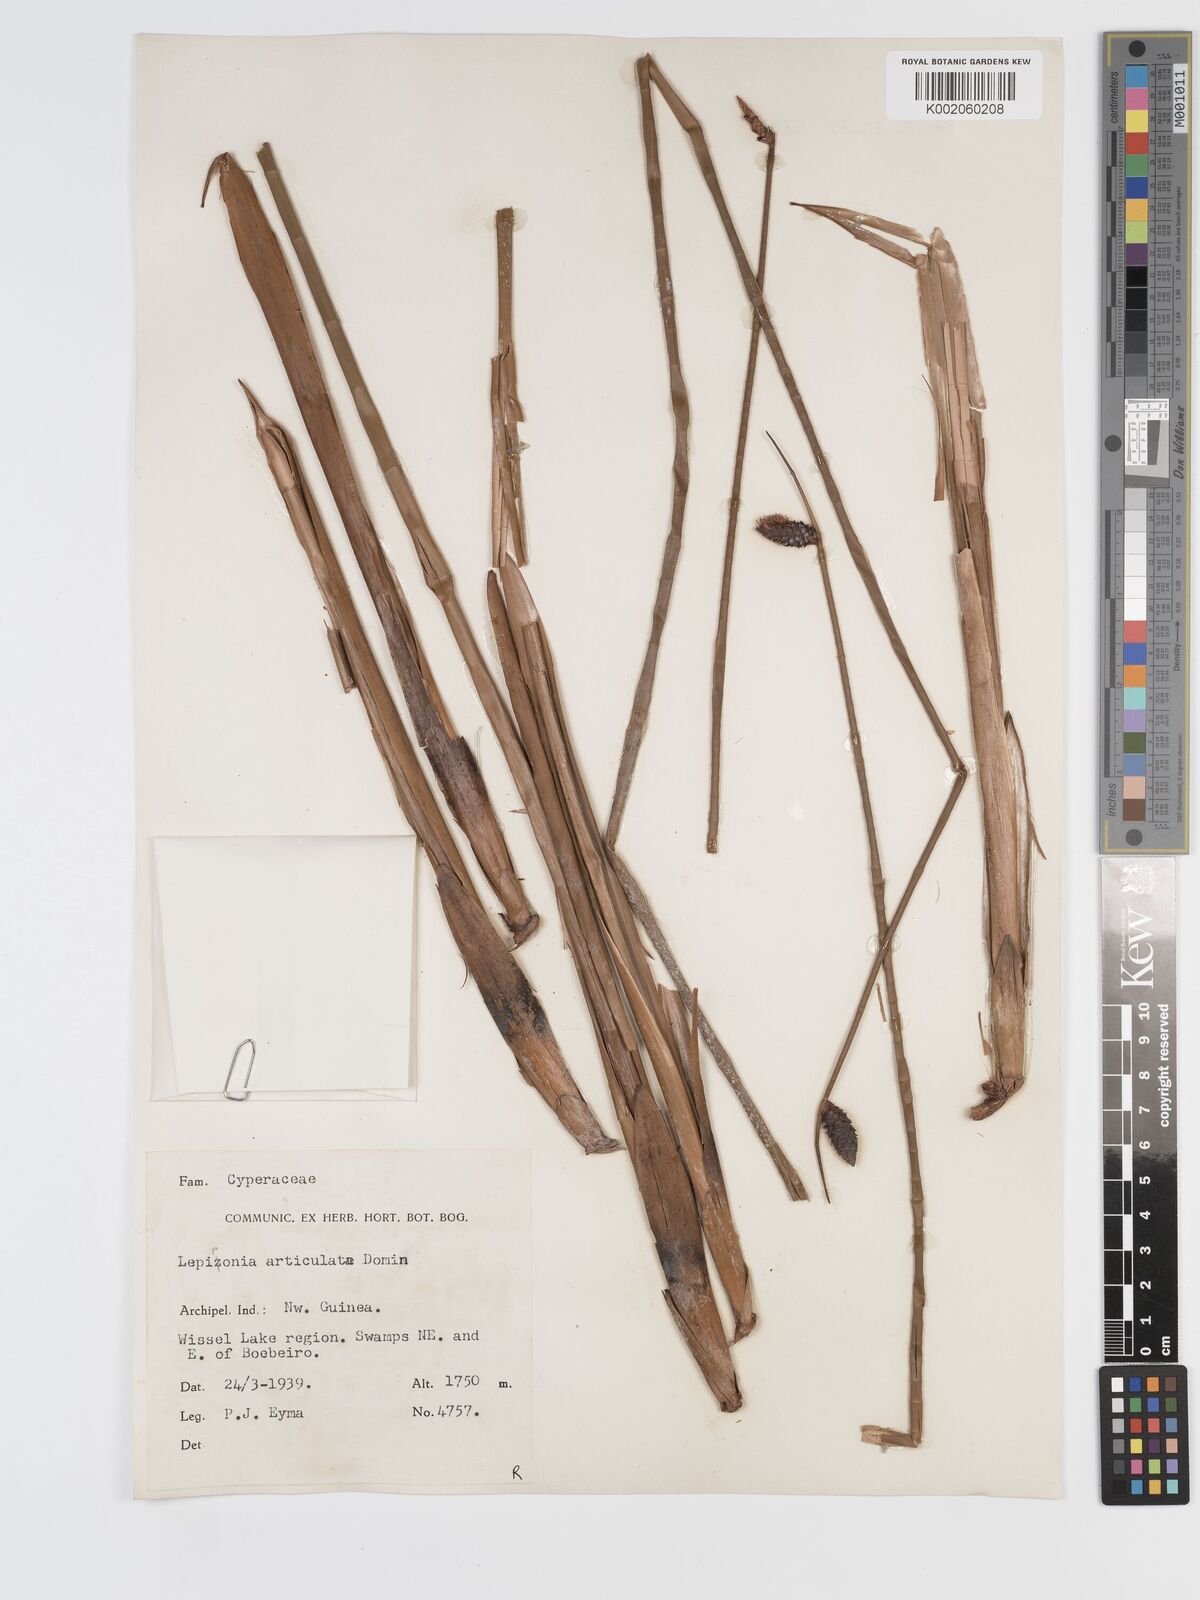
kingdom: Plantae
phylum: Tracheophyta
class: Liliopsida
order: Poales
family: Cyperaceae
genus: Lepironia
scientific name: Lepironia articulata
